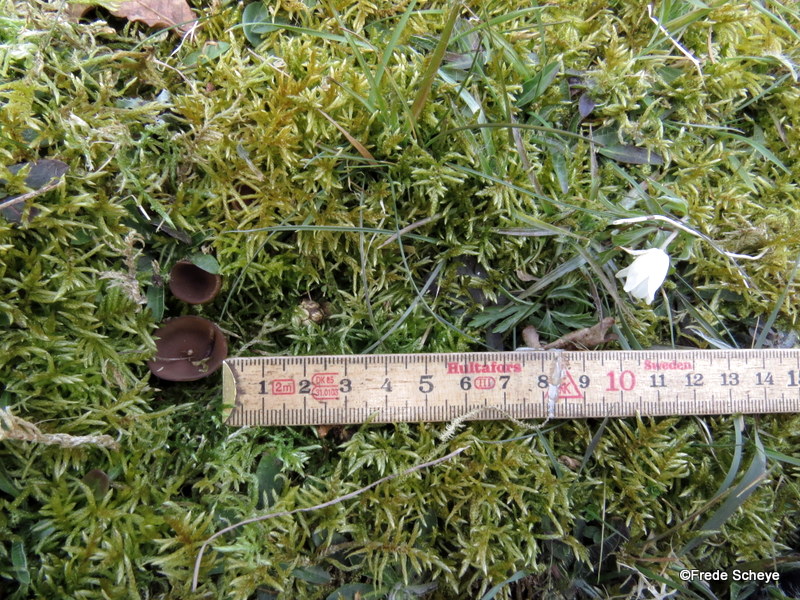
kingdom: Fungi
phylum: Ascomycota
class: Leotiomycetes
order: Helotiales
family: Sclerotiniaceae
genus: Dumontinia
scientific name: Dumontinia tuberosa
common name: anemone-knoldskive
